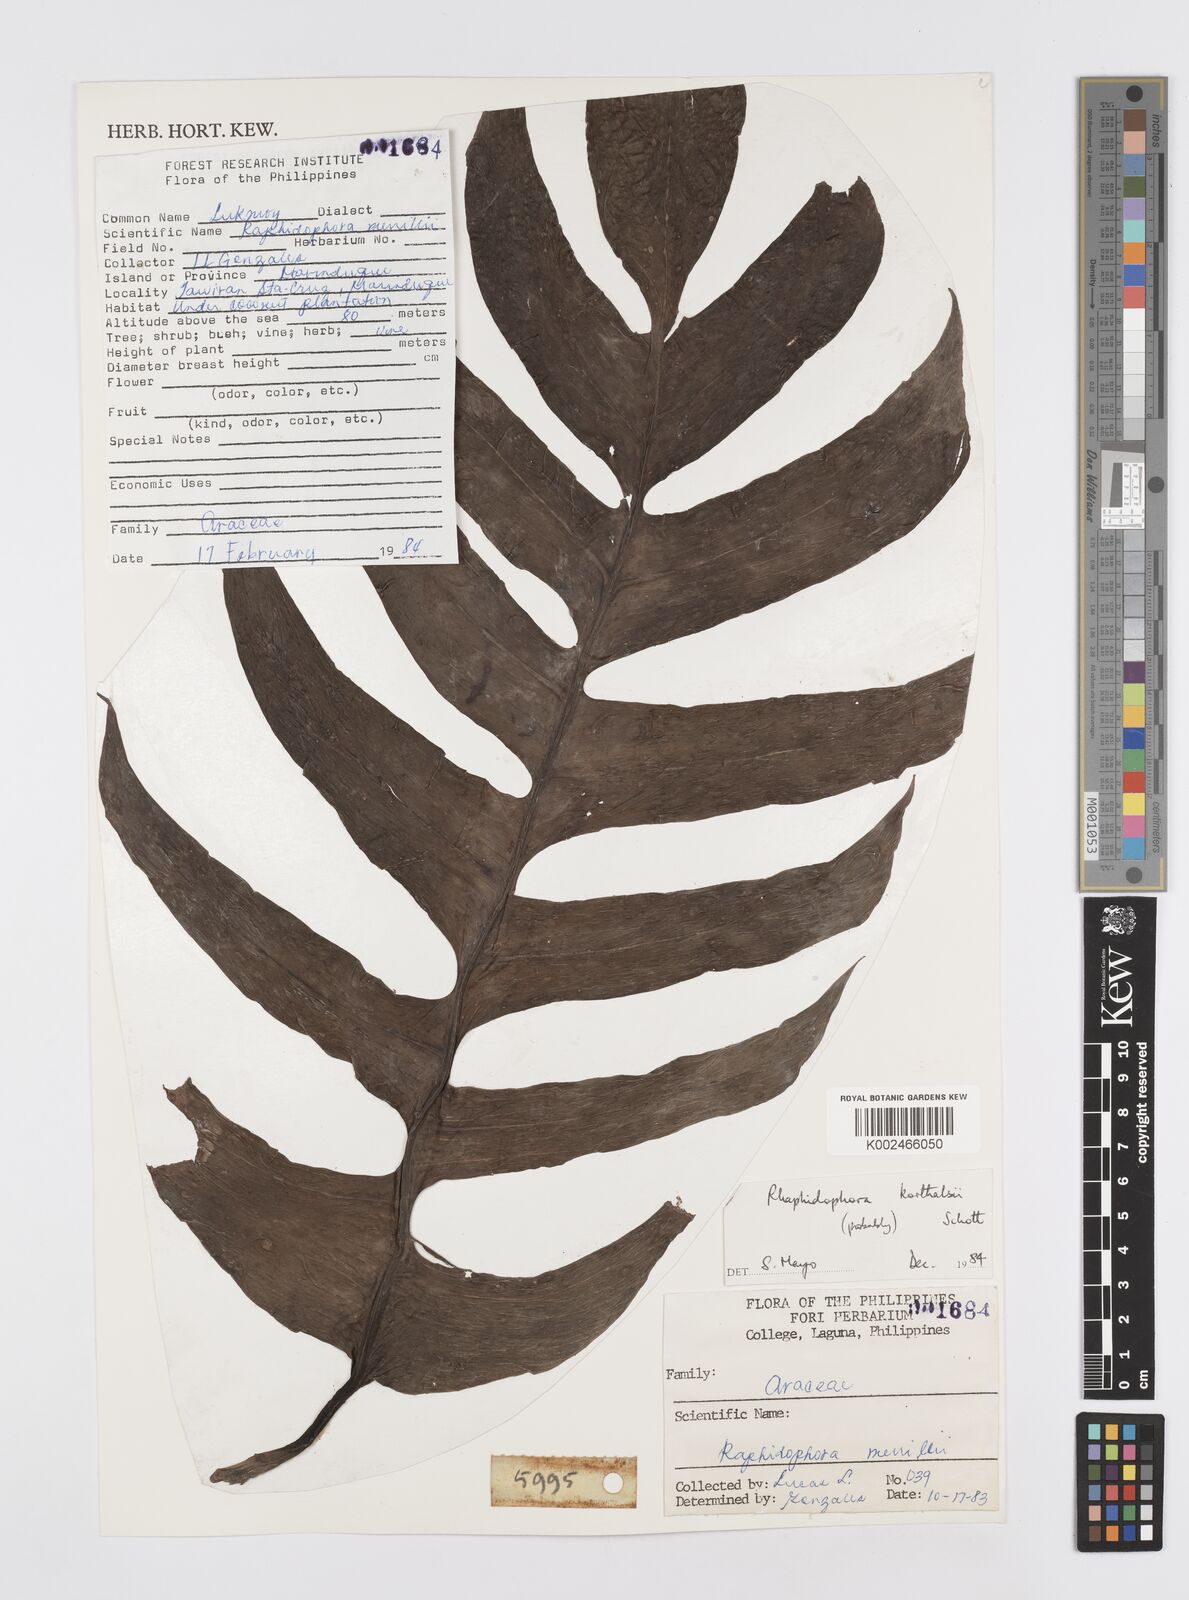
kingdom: Plantae
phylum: Tracheophyta
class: Liliopsida
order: Alismatales
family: Araceae
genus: Rhaphidophora
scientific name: Rhaphidophora korthalsii
